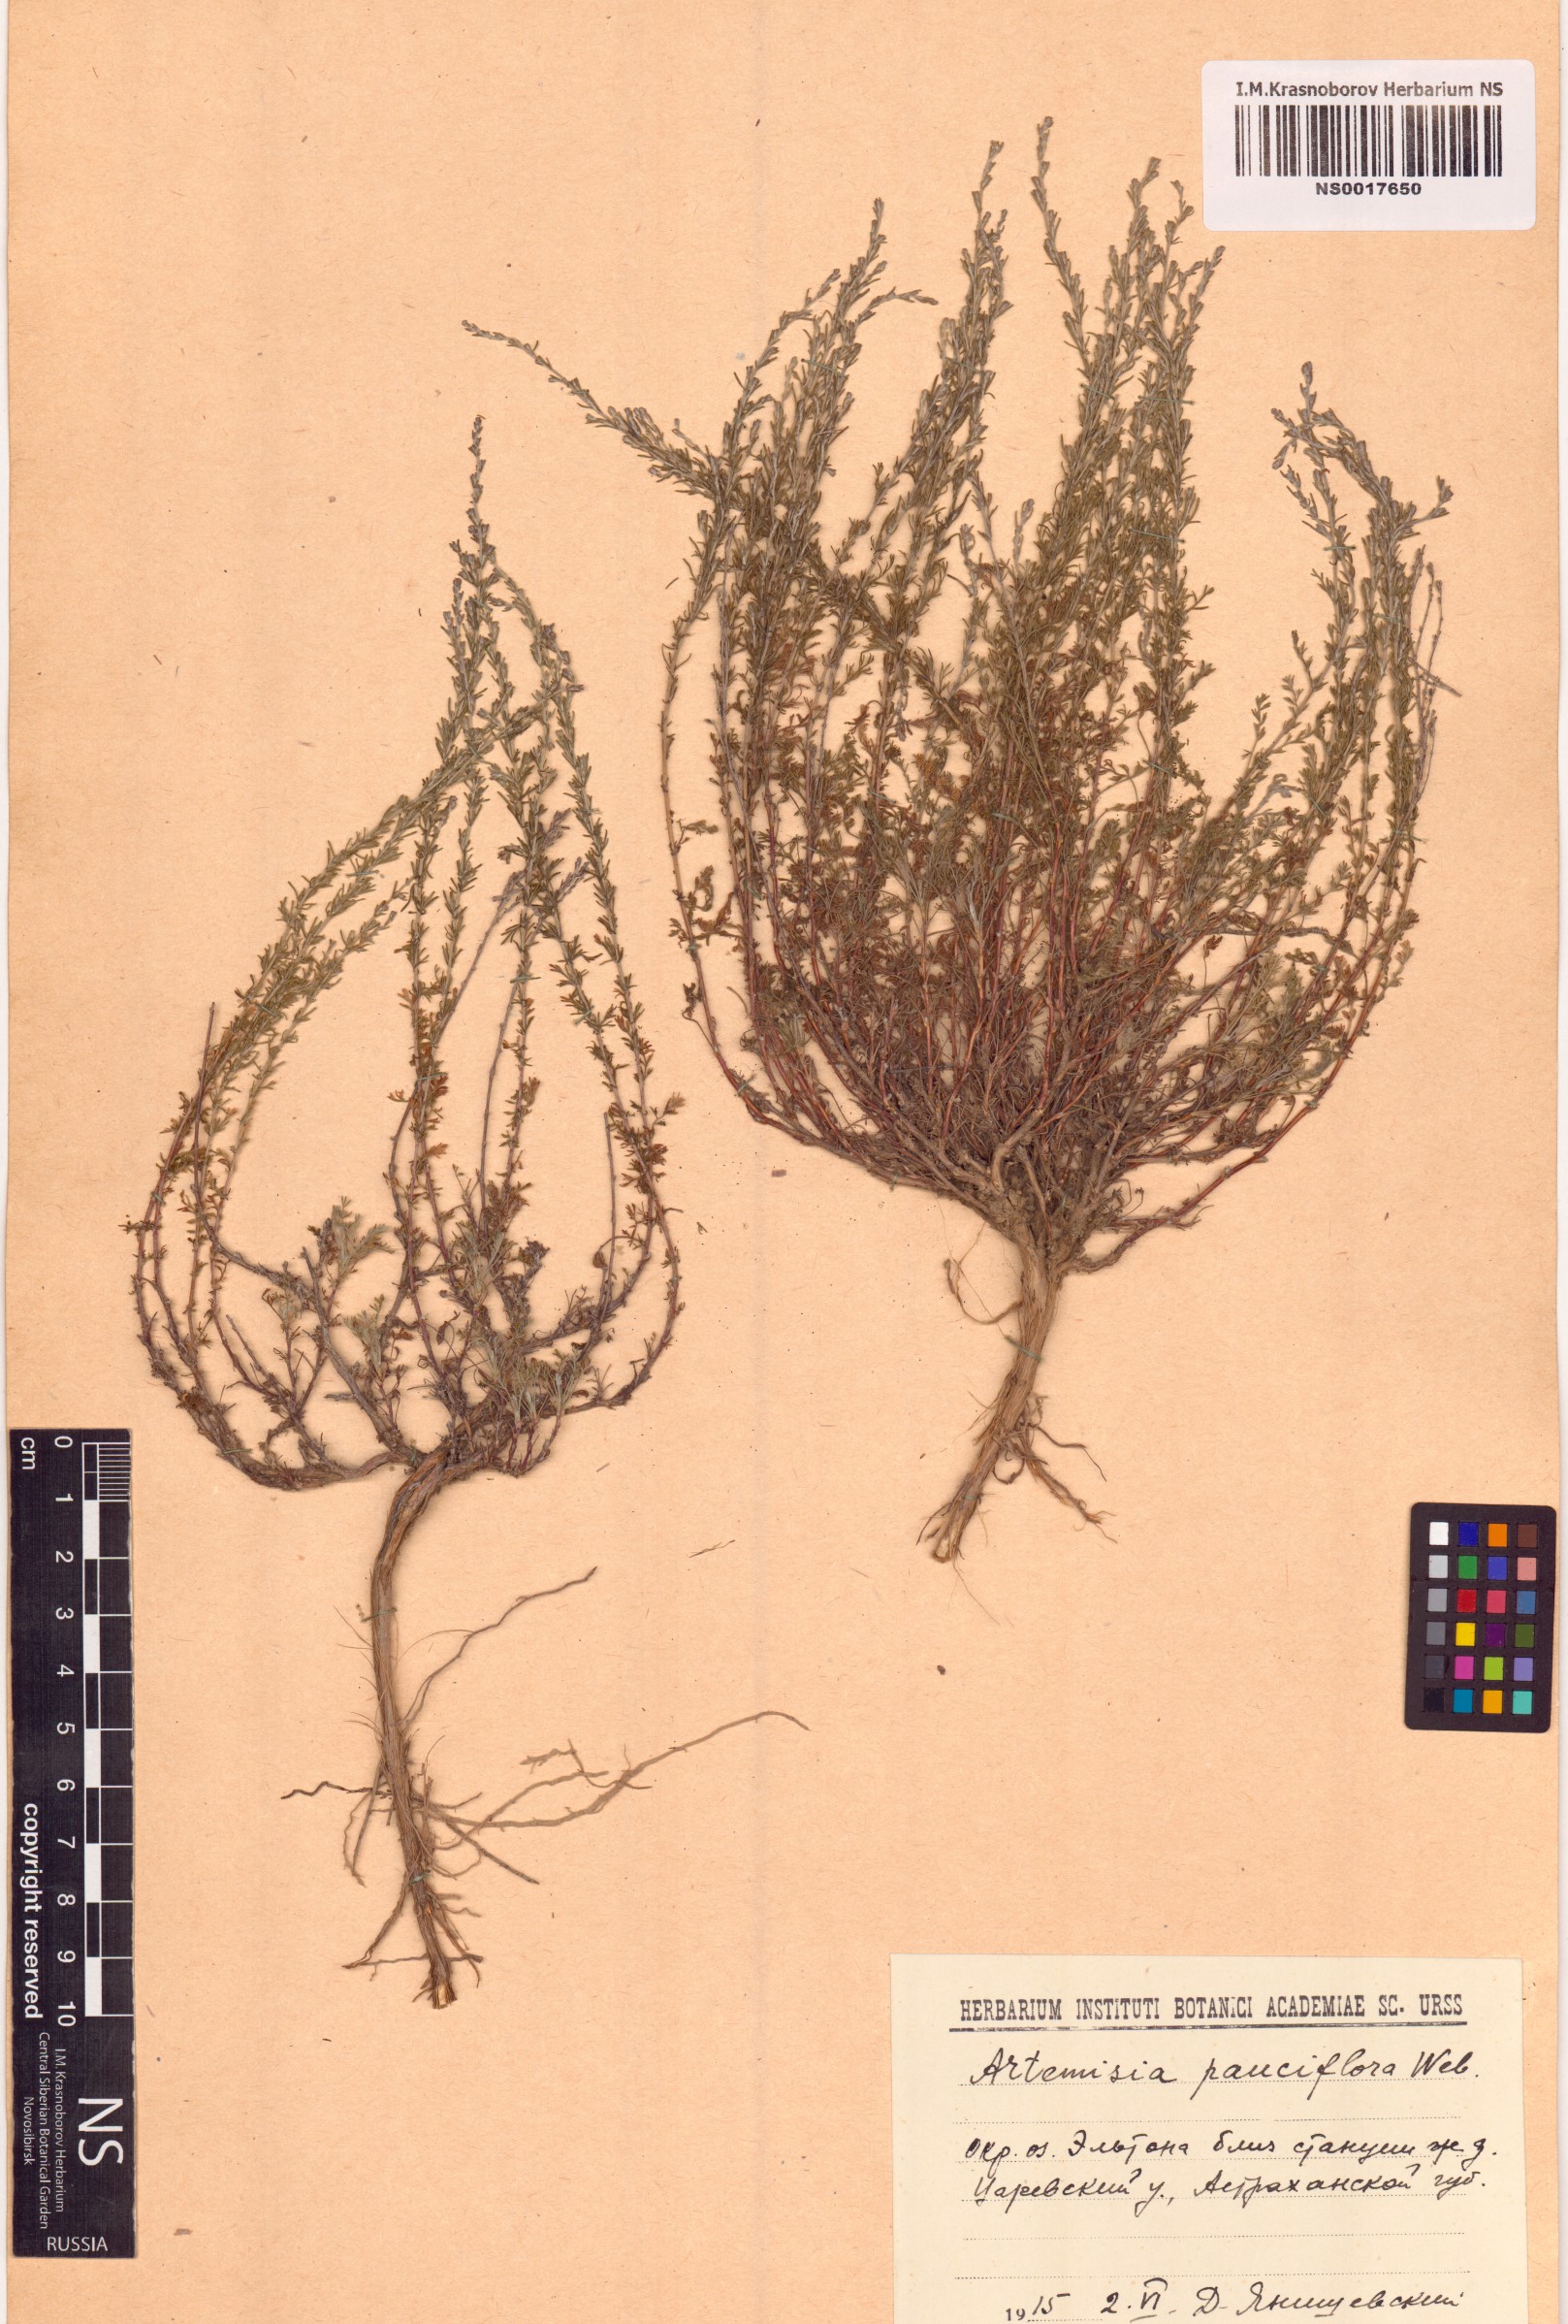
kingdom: Plantae
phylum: Tracheophyta
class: Magnoliopsida
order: Asterales
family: Asteraceae
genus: Artemisia
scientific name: Artemisia pauciflora
